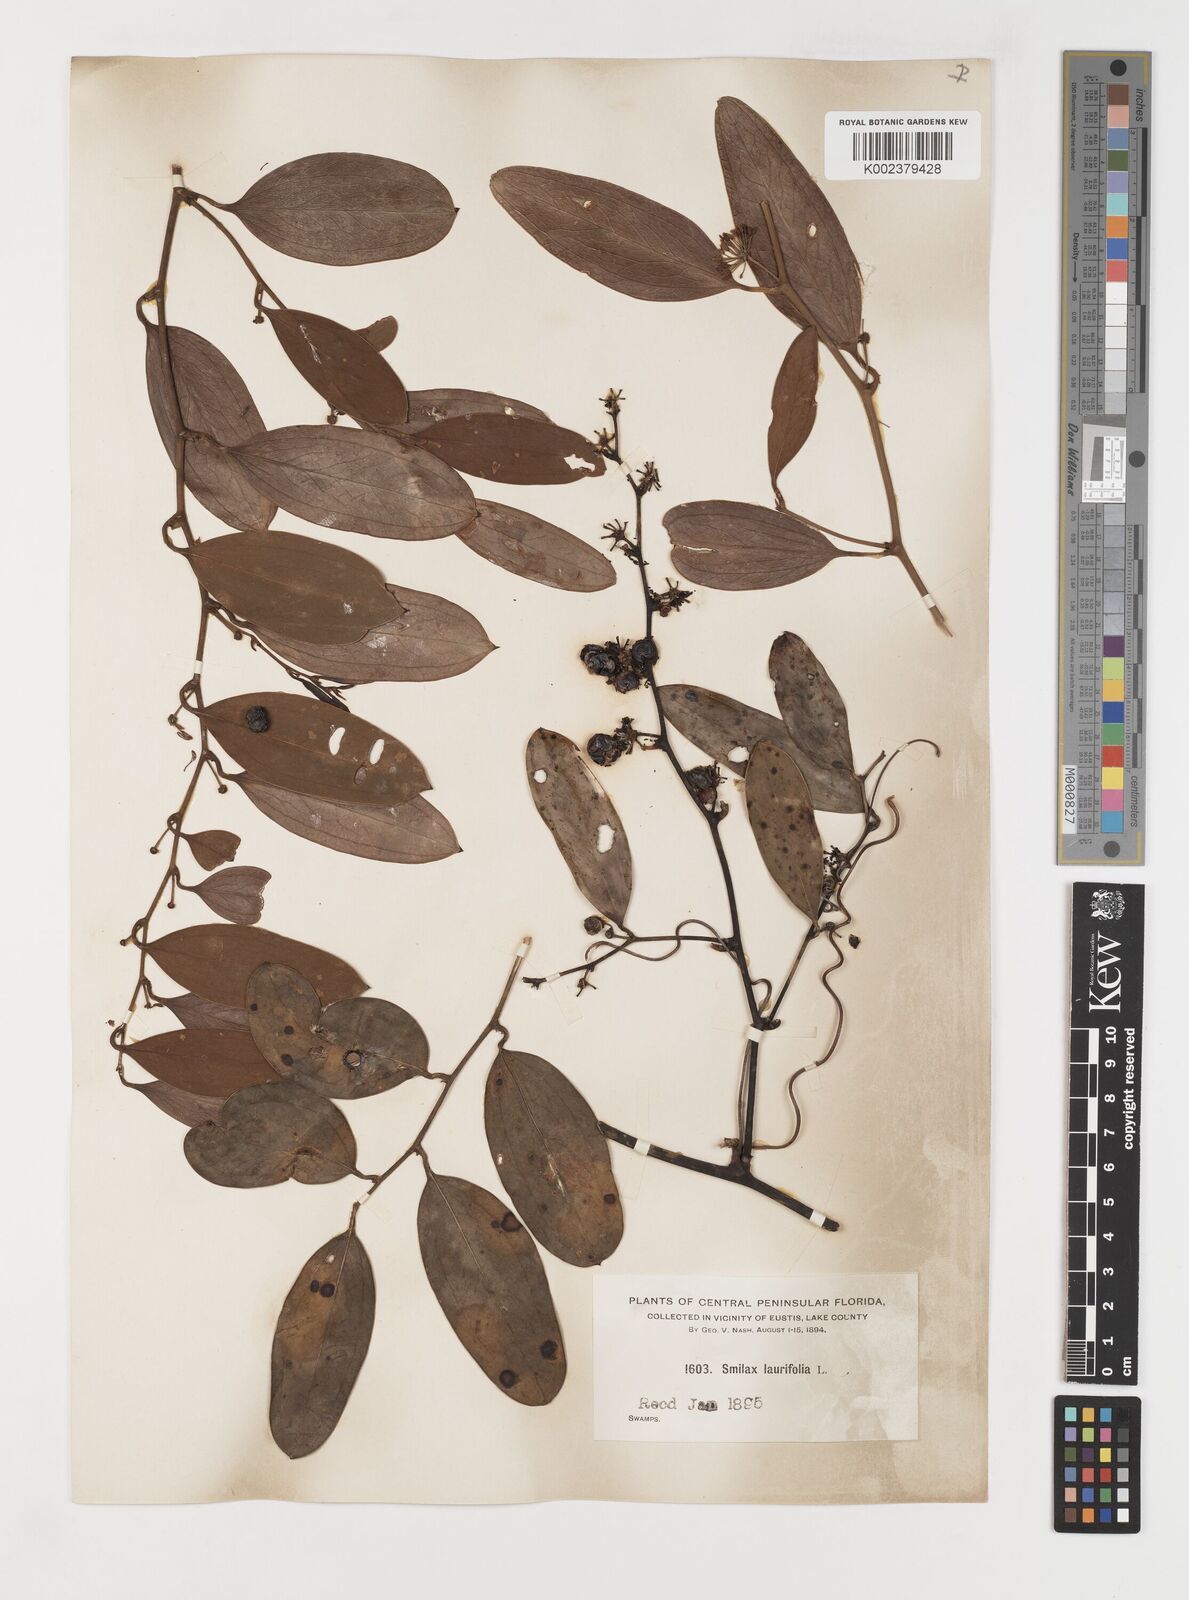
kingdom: Plantae
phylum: Tracheophyta
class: Liliopsida
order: Liliales
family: Smilacaceae
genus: Smilax
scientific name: Smilax laurifolia
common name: Bamboovine
